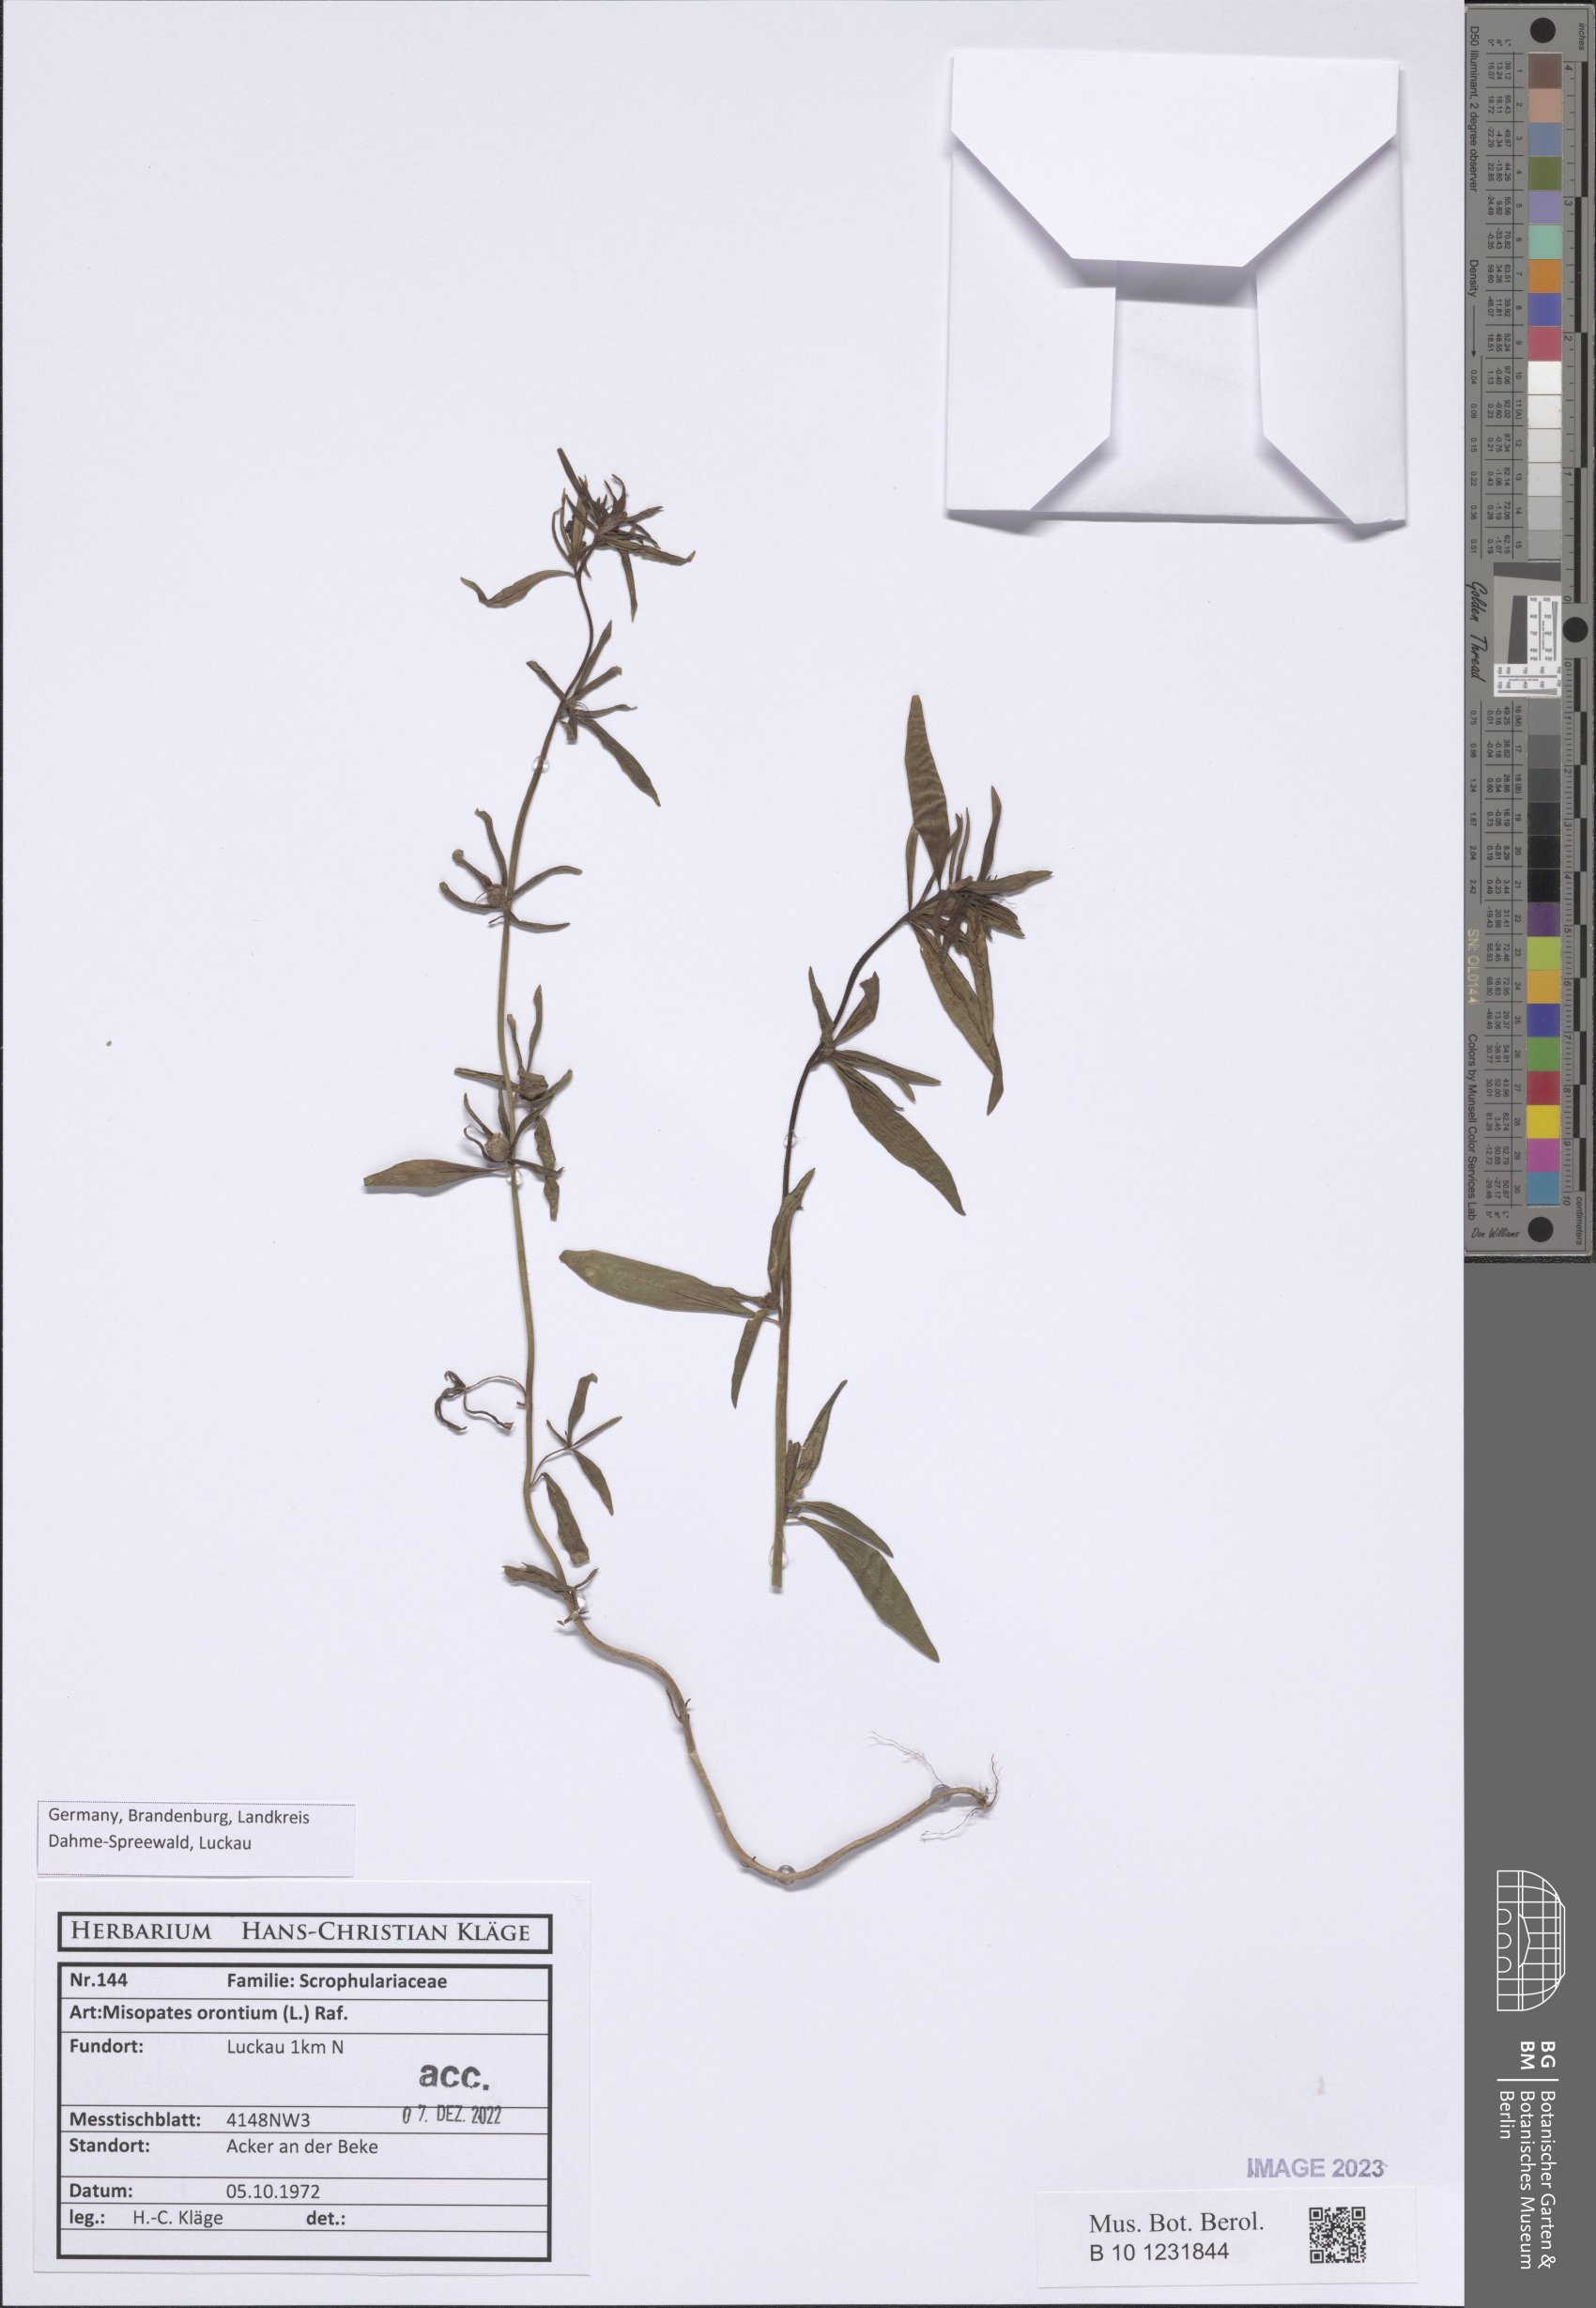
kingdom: Plantae
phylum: Tracheophyta
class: Magnoliopsida
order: Lamiales
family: Plantaginaceae
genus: Misopates
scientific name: Misopates orontium
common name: Weasel's-snout
